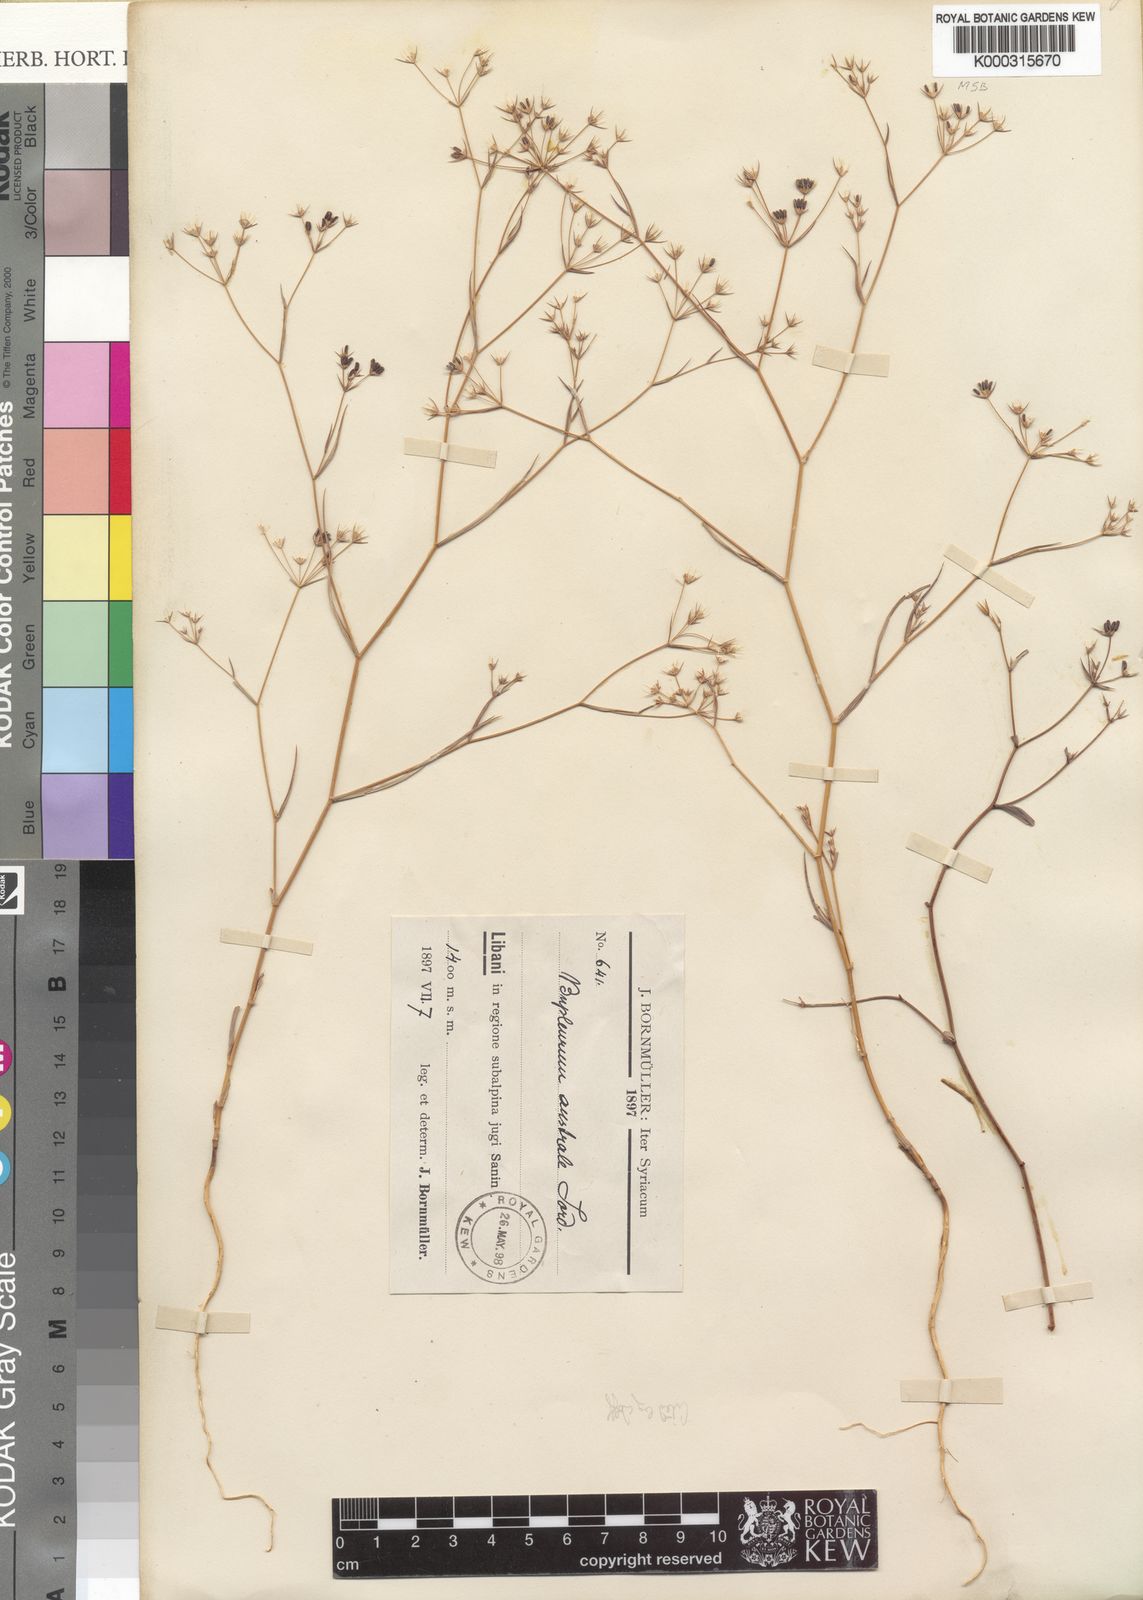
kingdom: Plantae
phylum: Tracheophyta
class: Magnoliopsida
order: Apiales
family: Apiaceae
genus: Bupleurum
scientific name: Bupleurum gerardi
